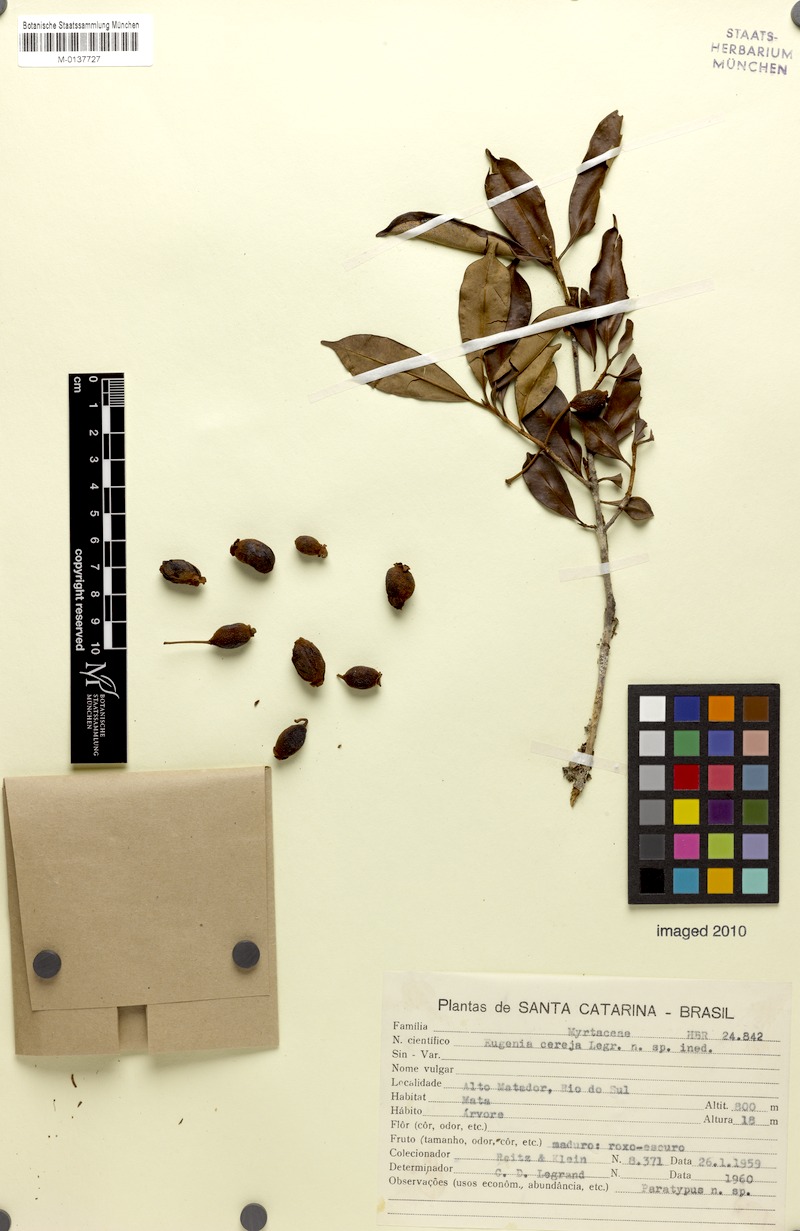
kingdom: Plantae
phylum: Tracheophyta
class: Magnoliopsida
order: Myrtales
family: Myrtaceae
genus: Eugenia
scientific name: Eugenia cereja
